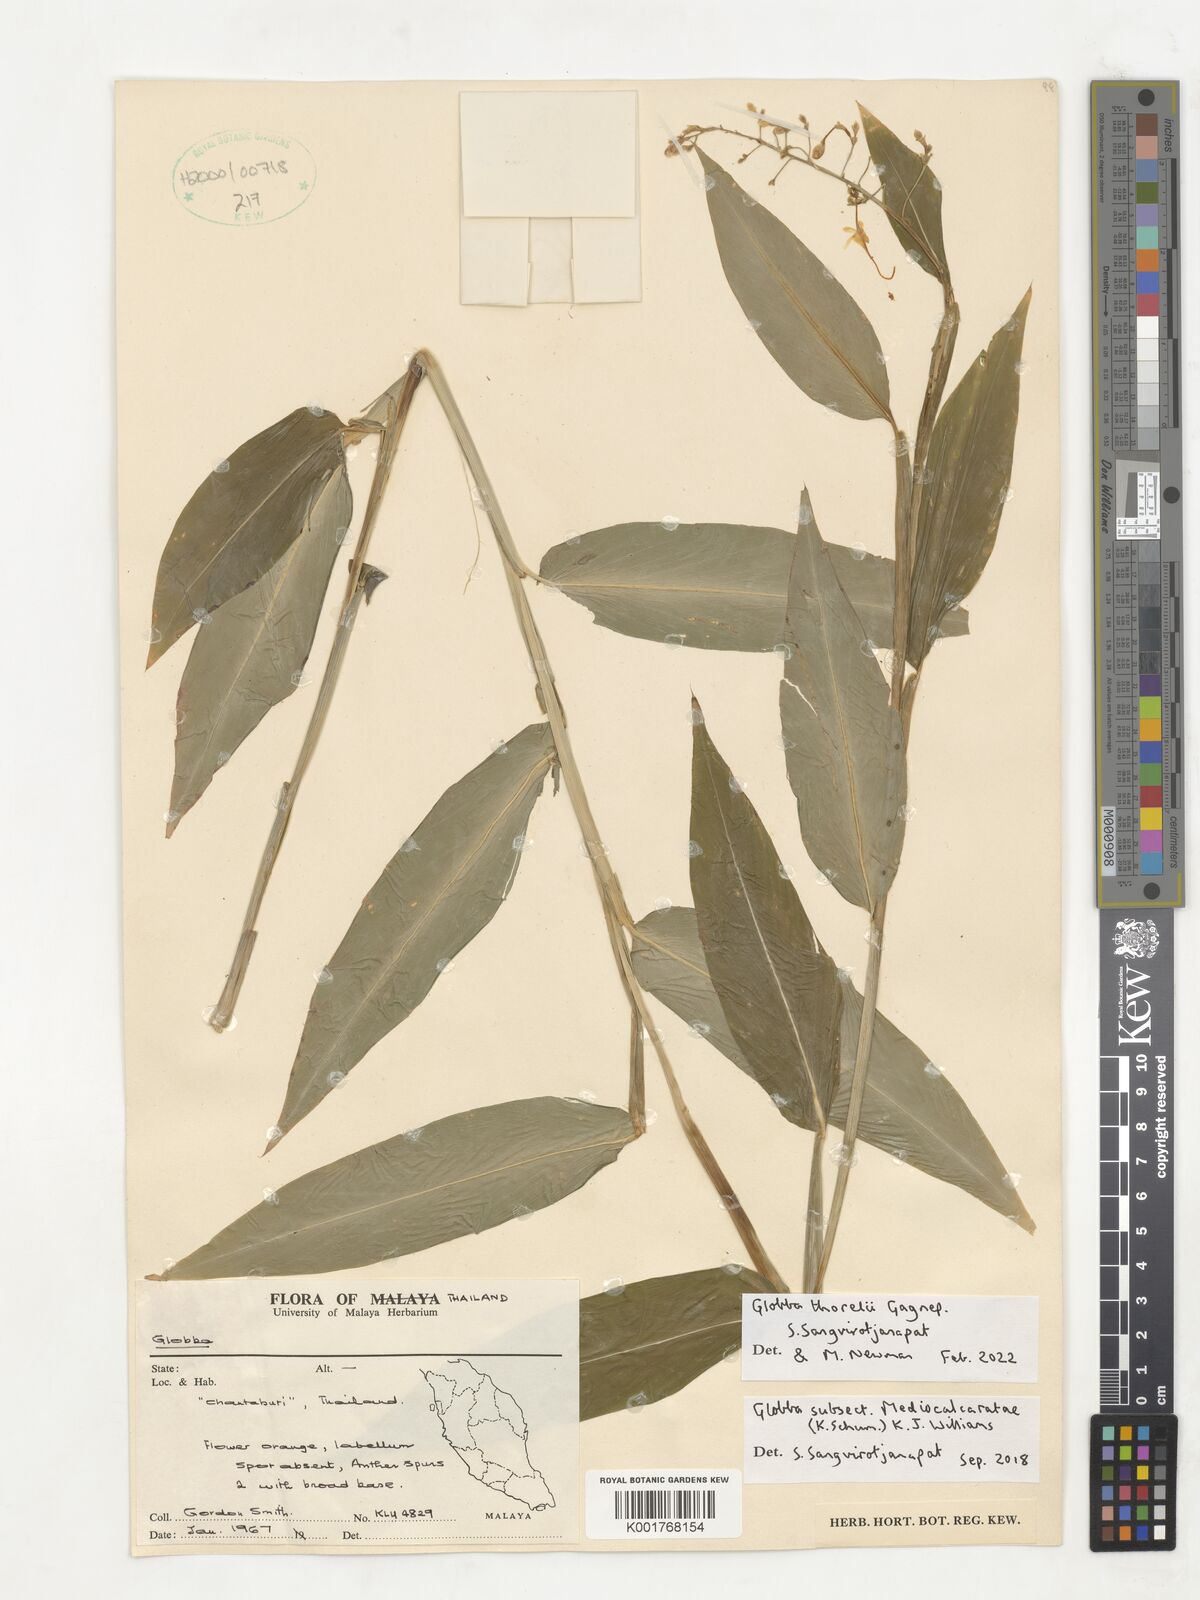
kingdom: Plantae
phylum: Tracheophyta
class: Liliopsida
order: Zingiberales
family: Zingiberaceae
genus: Globba
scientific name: Globba thorelii
